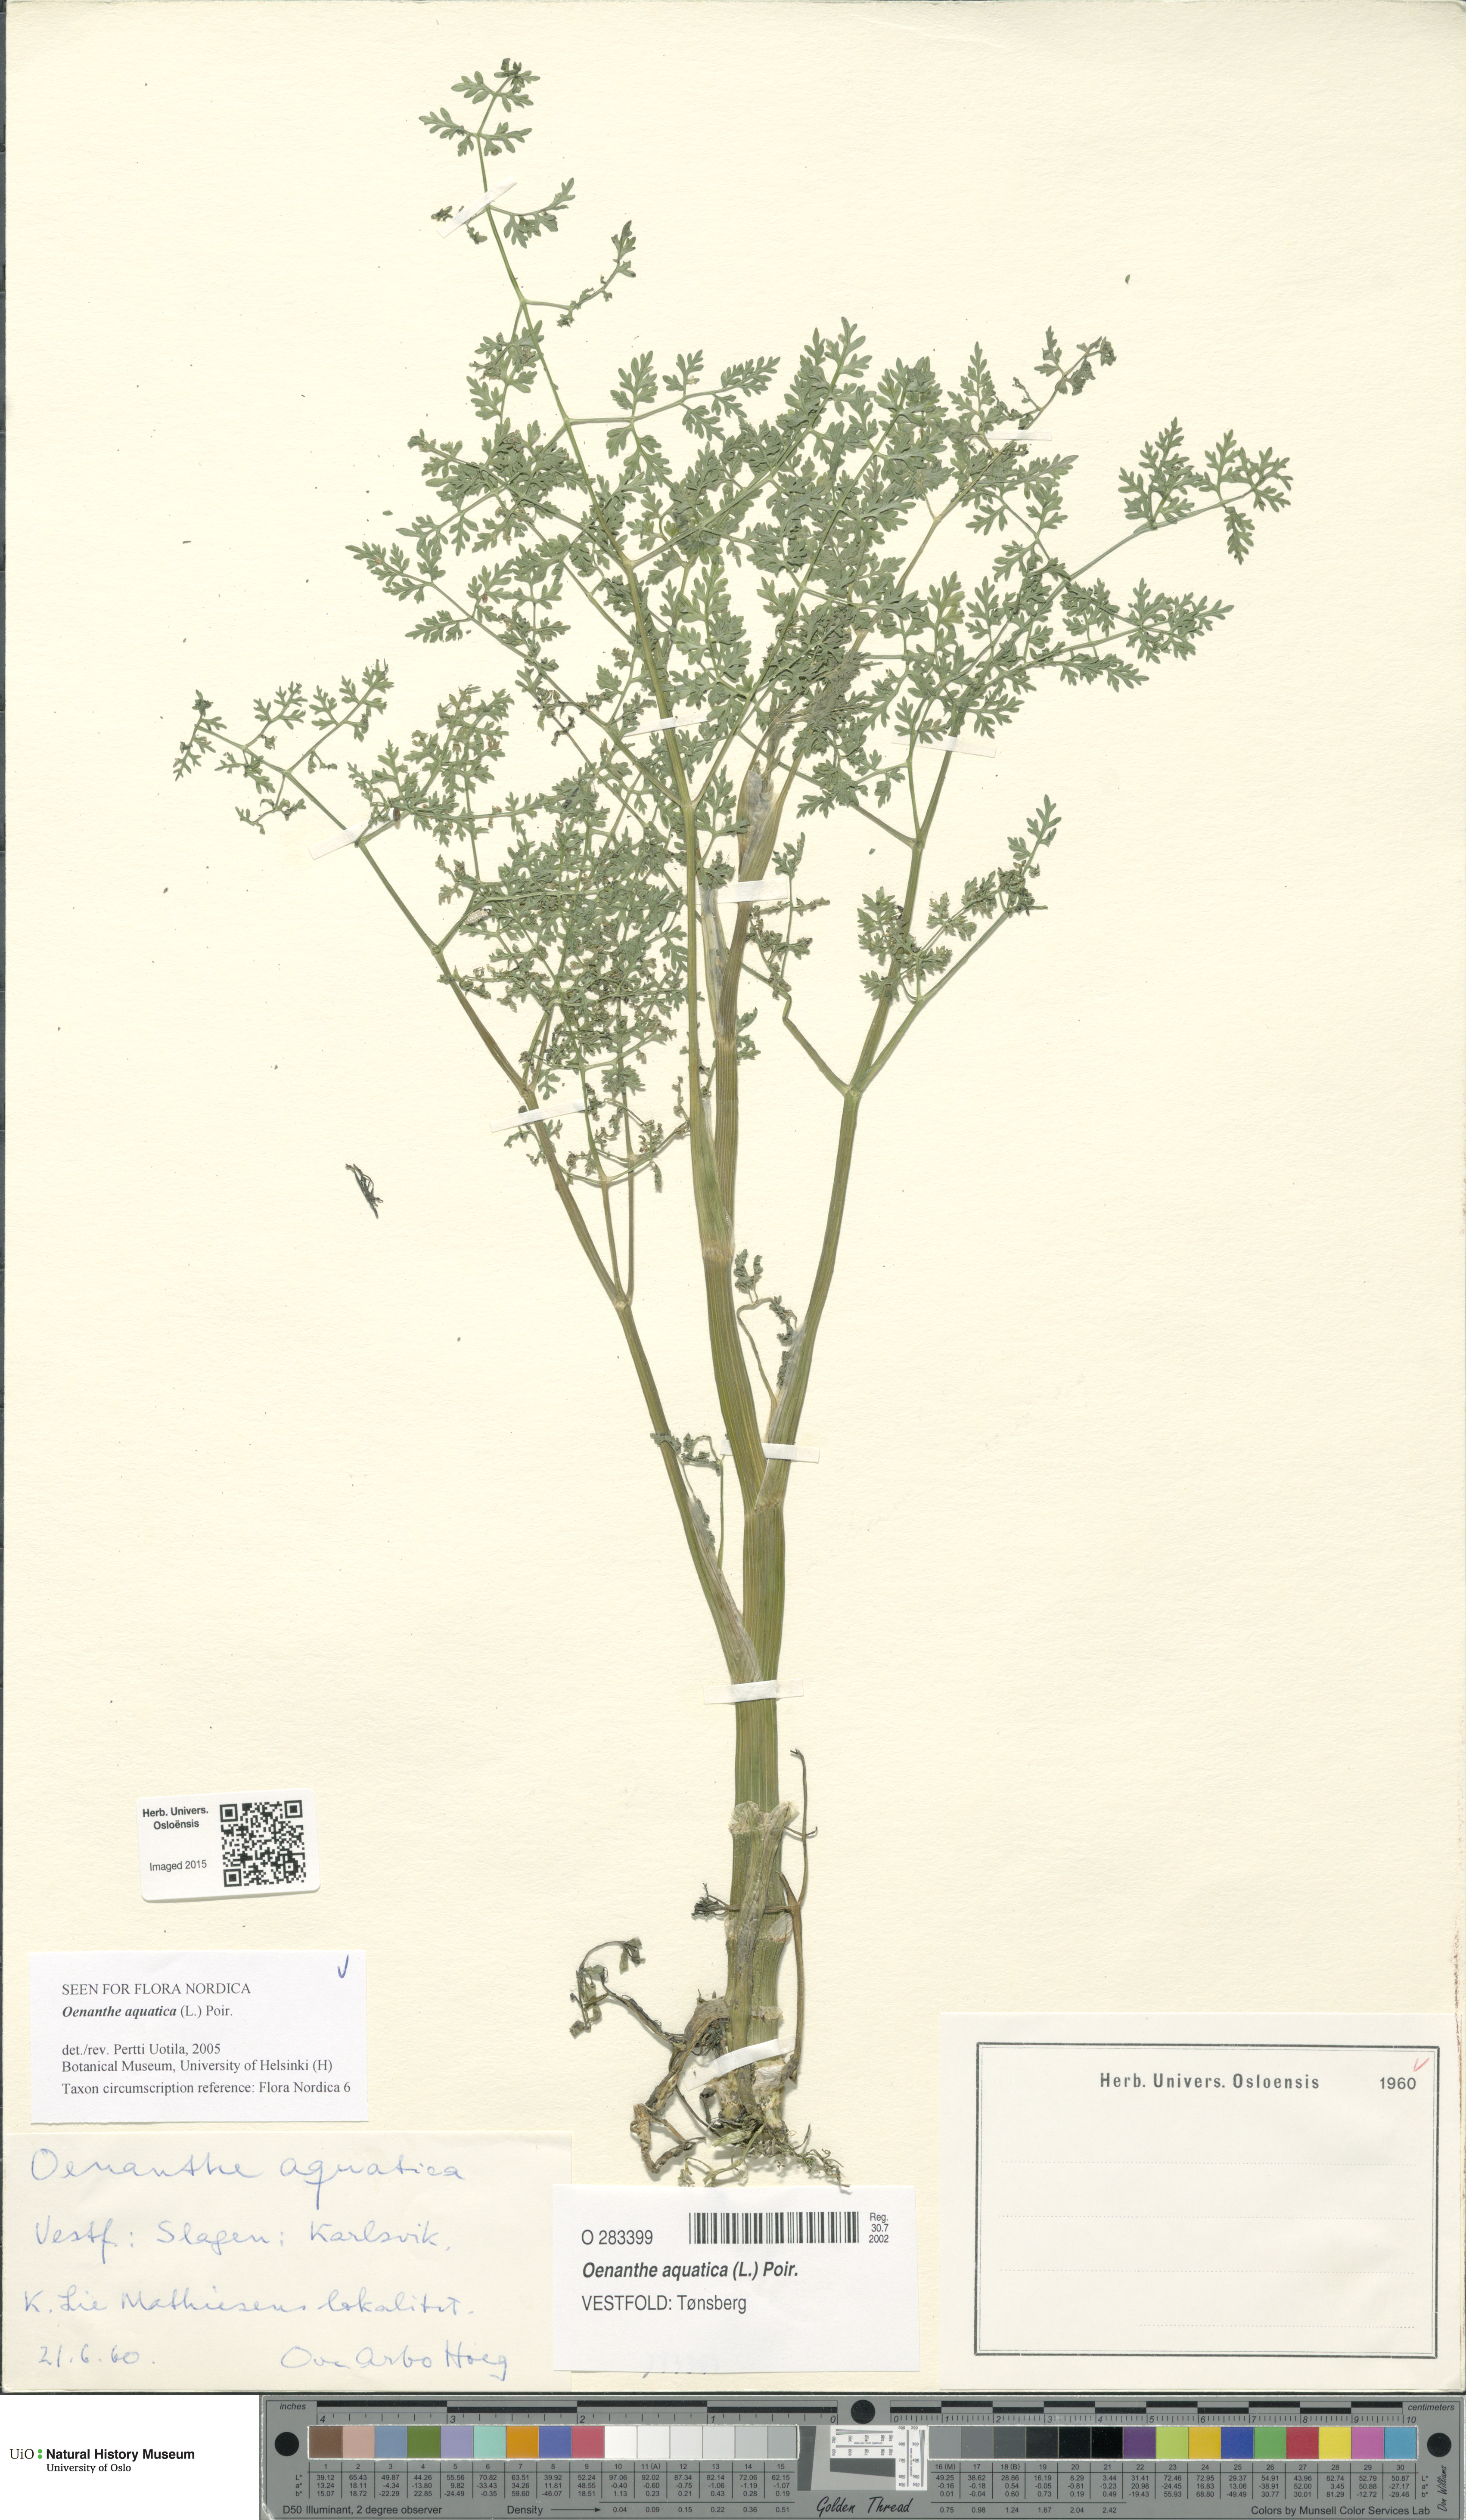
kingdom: Plantae
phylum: Tracheophyta
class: Magnoliopsida
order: Apiales
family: Apiaceae
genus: Oenanthe
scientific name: Oenanthe aquatica
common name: Fine-leaved water-dropwort
